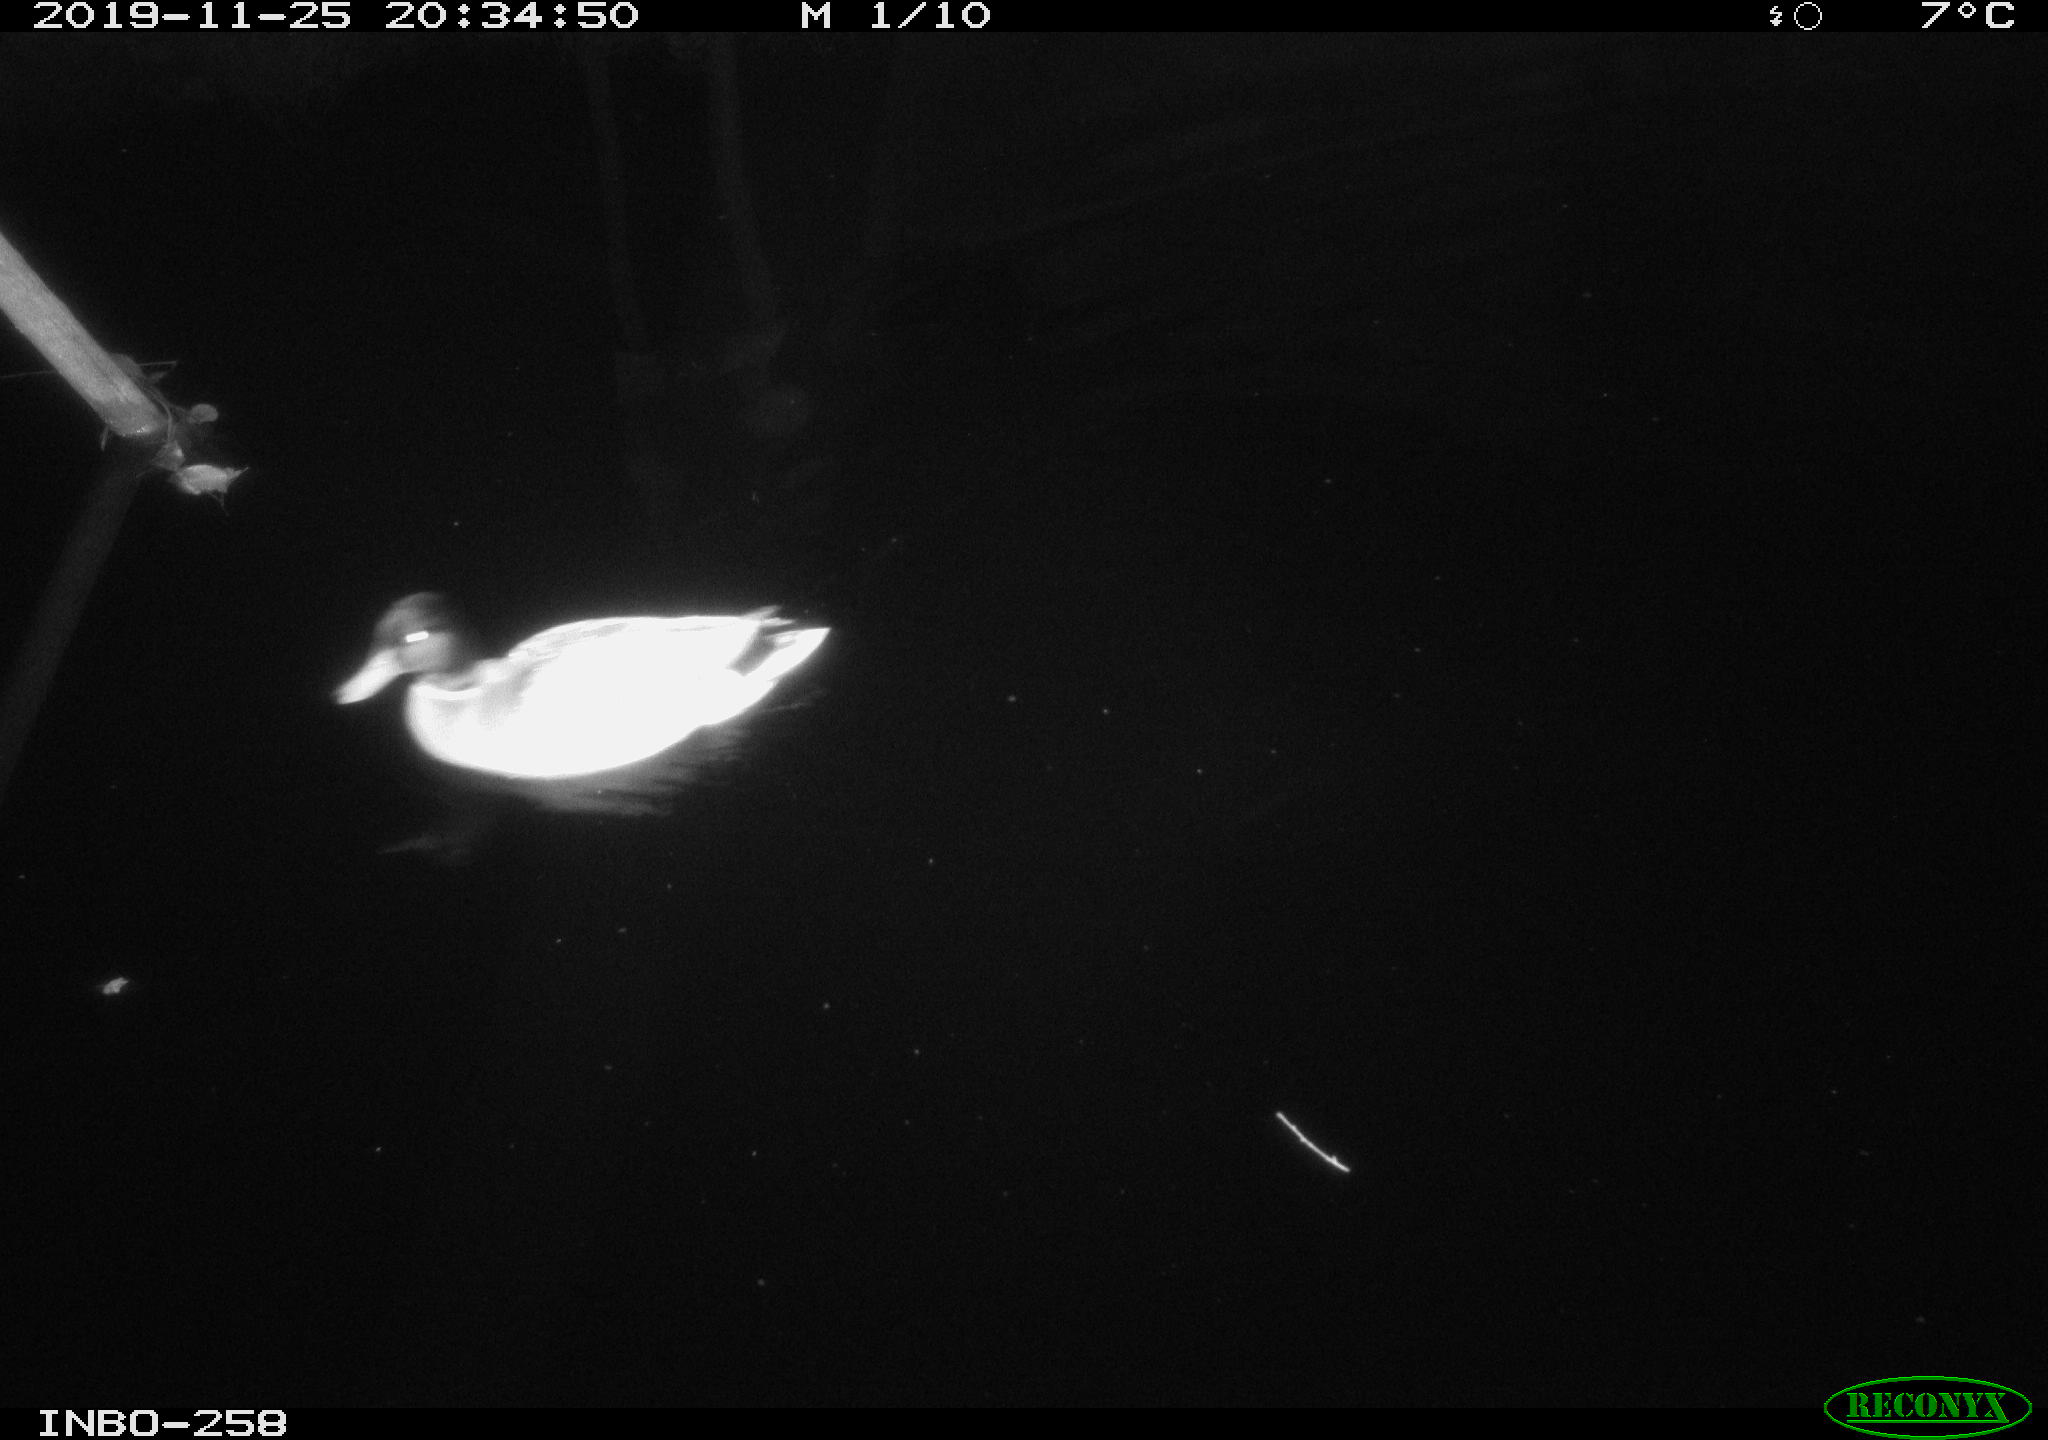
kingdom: Animalia
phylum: Chordata
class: Aves
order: Anseriformes
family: Anatidae
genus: Anas
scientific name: Anas platyrhynchos
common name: Mallard
